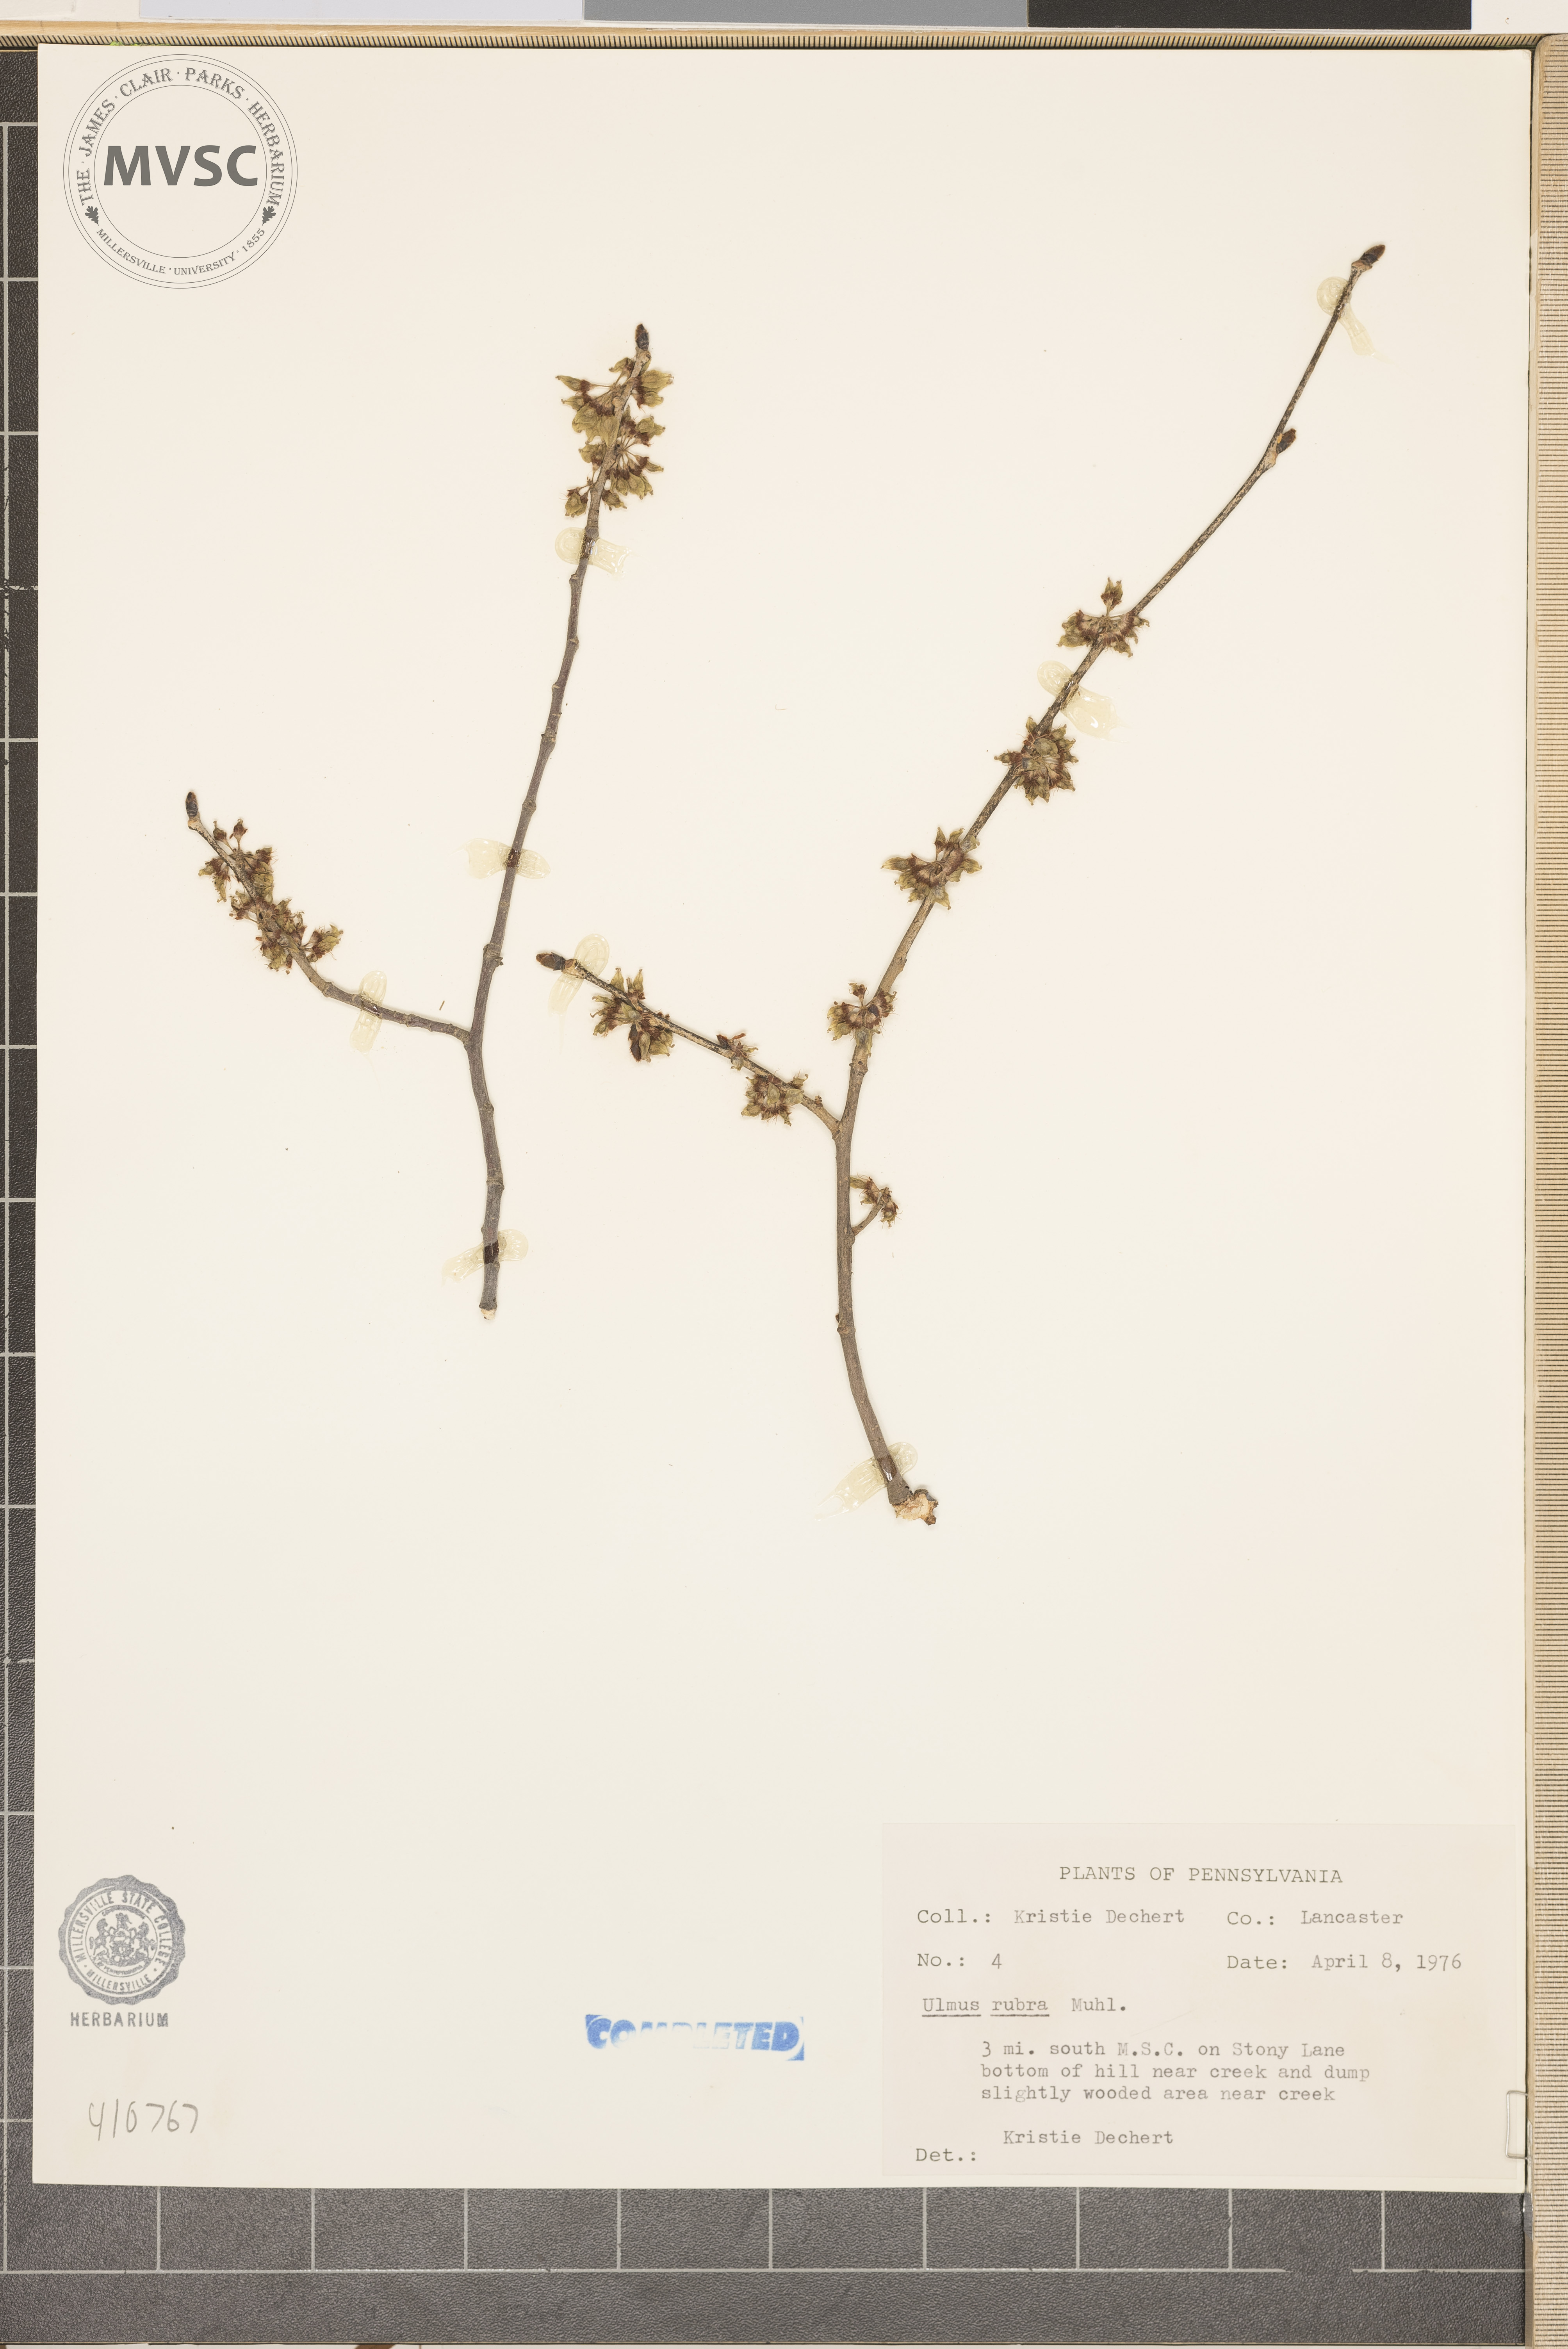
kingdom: Plantae
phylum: Tracheophyta
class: Magnoliopsida
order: Rosales
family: Ulmaceae
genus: Ulmus
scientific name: Ulmus rubra
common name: slippery elm
